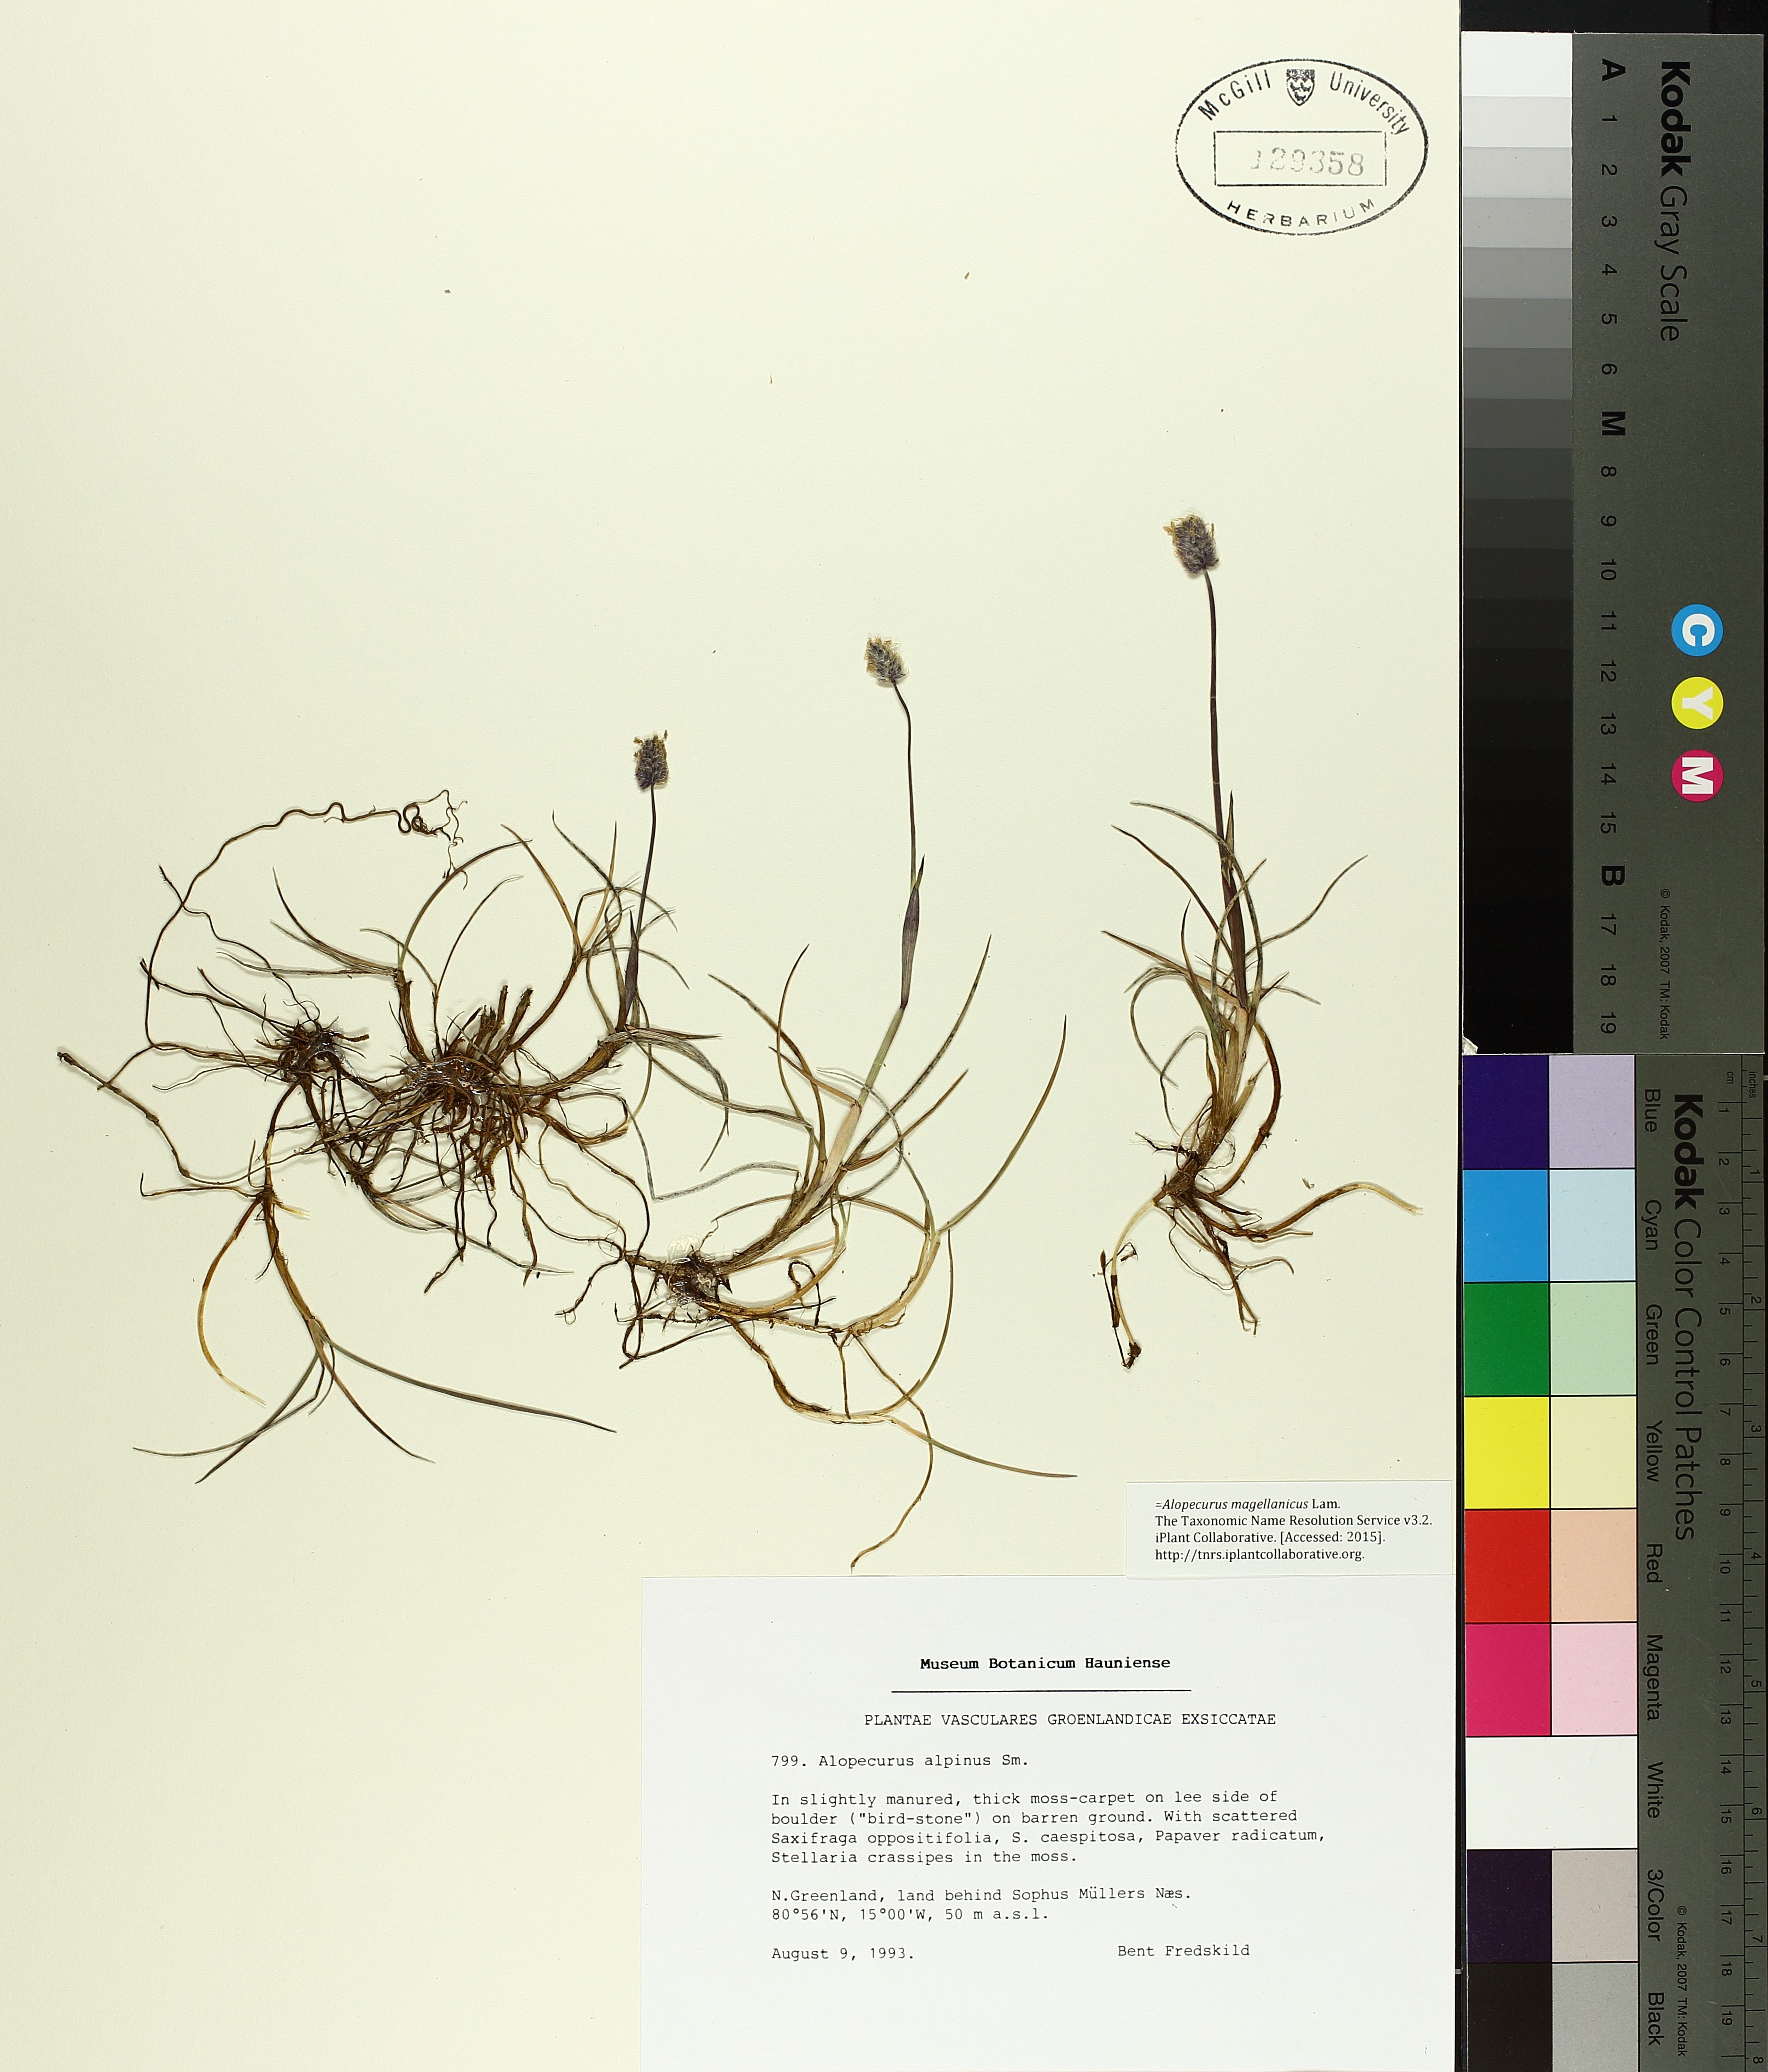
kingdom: Plantae
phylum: Tracheophyta
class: Liliopsida
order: Poales
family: Poaceae
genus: Alopecurus
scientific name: Alopecurus magellanicus
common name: Alpine foxtail
